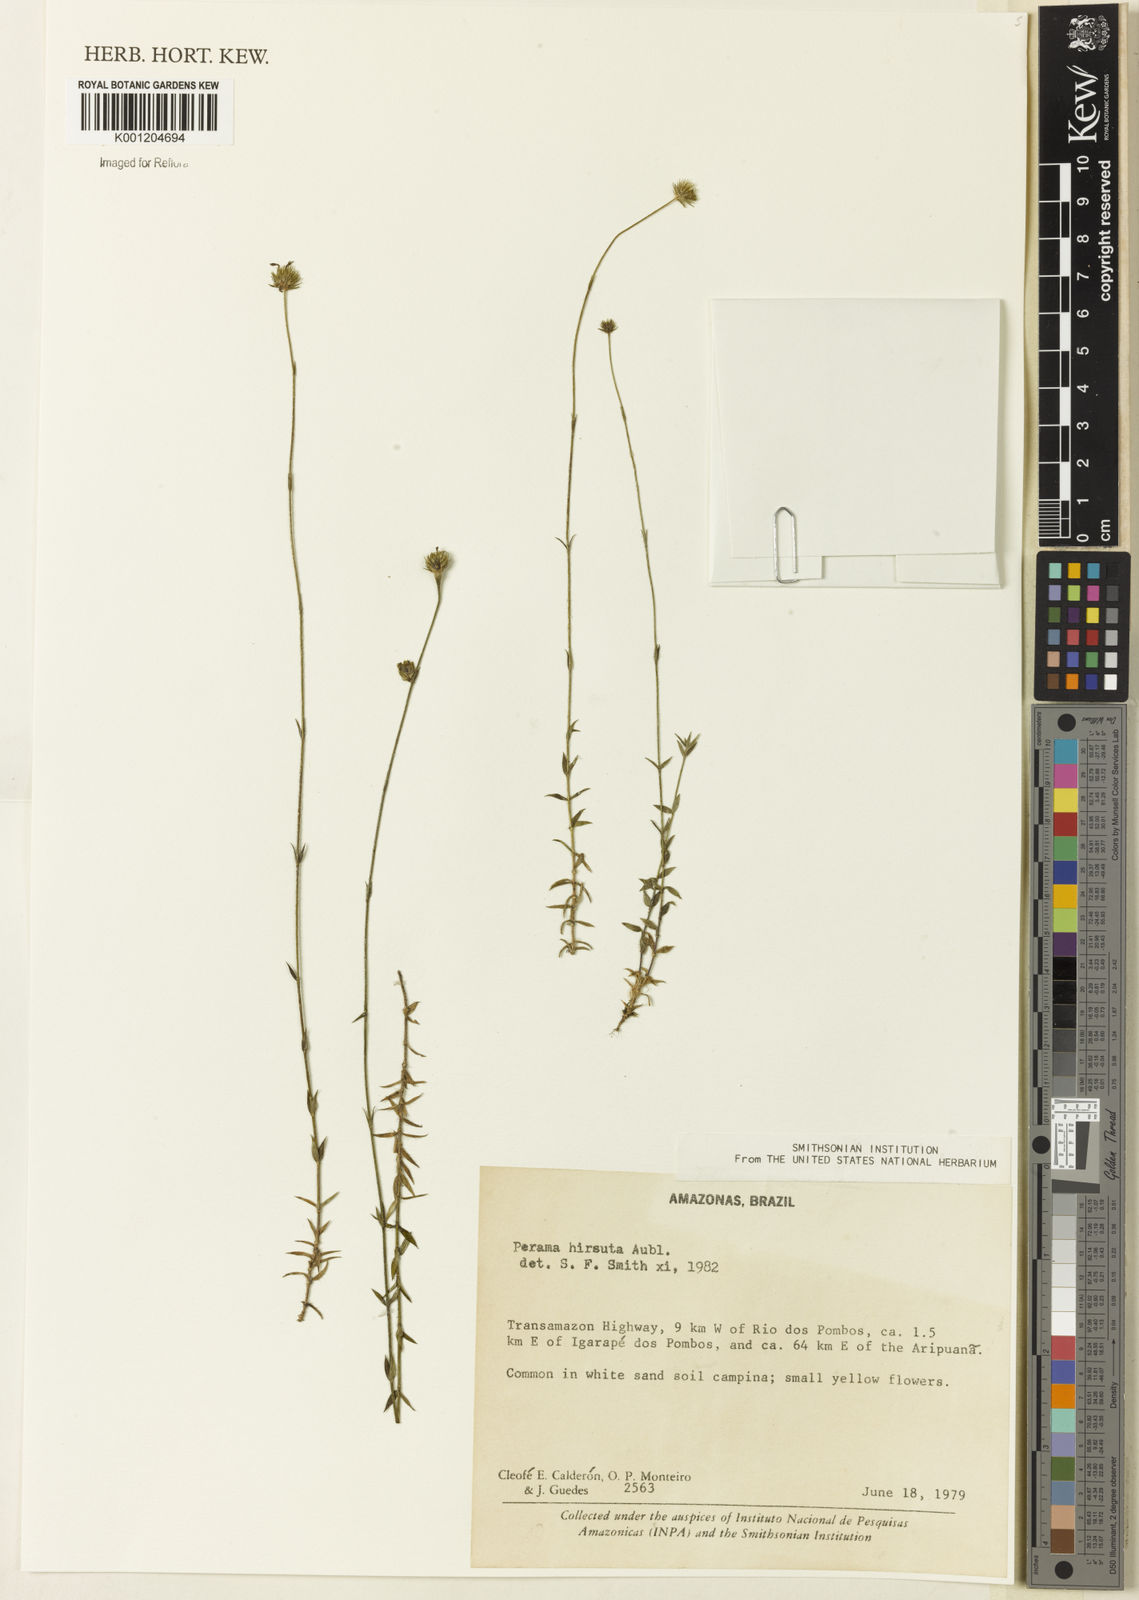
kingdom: Plantae
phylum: Tracheophyta
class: Magnoliopsida
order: Gentianales
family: Rubiaceae
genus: Perama
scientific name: Perama hirsuta
